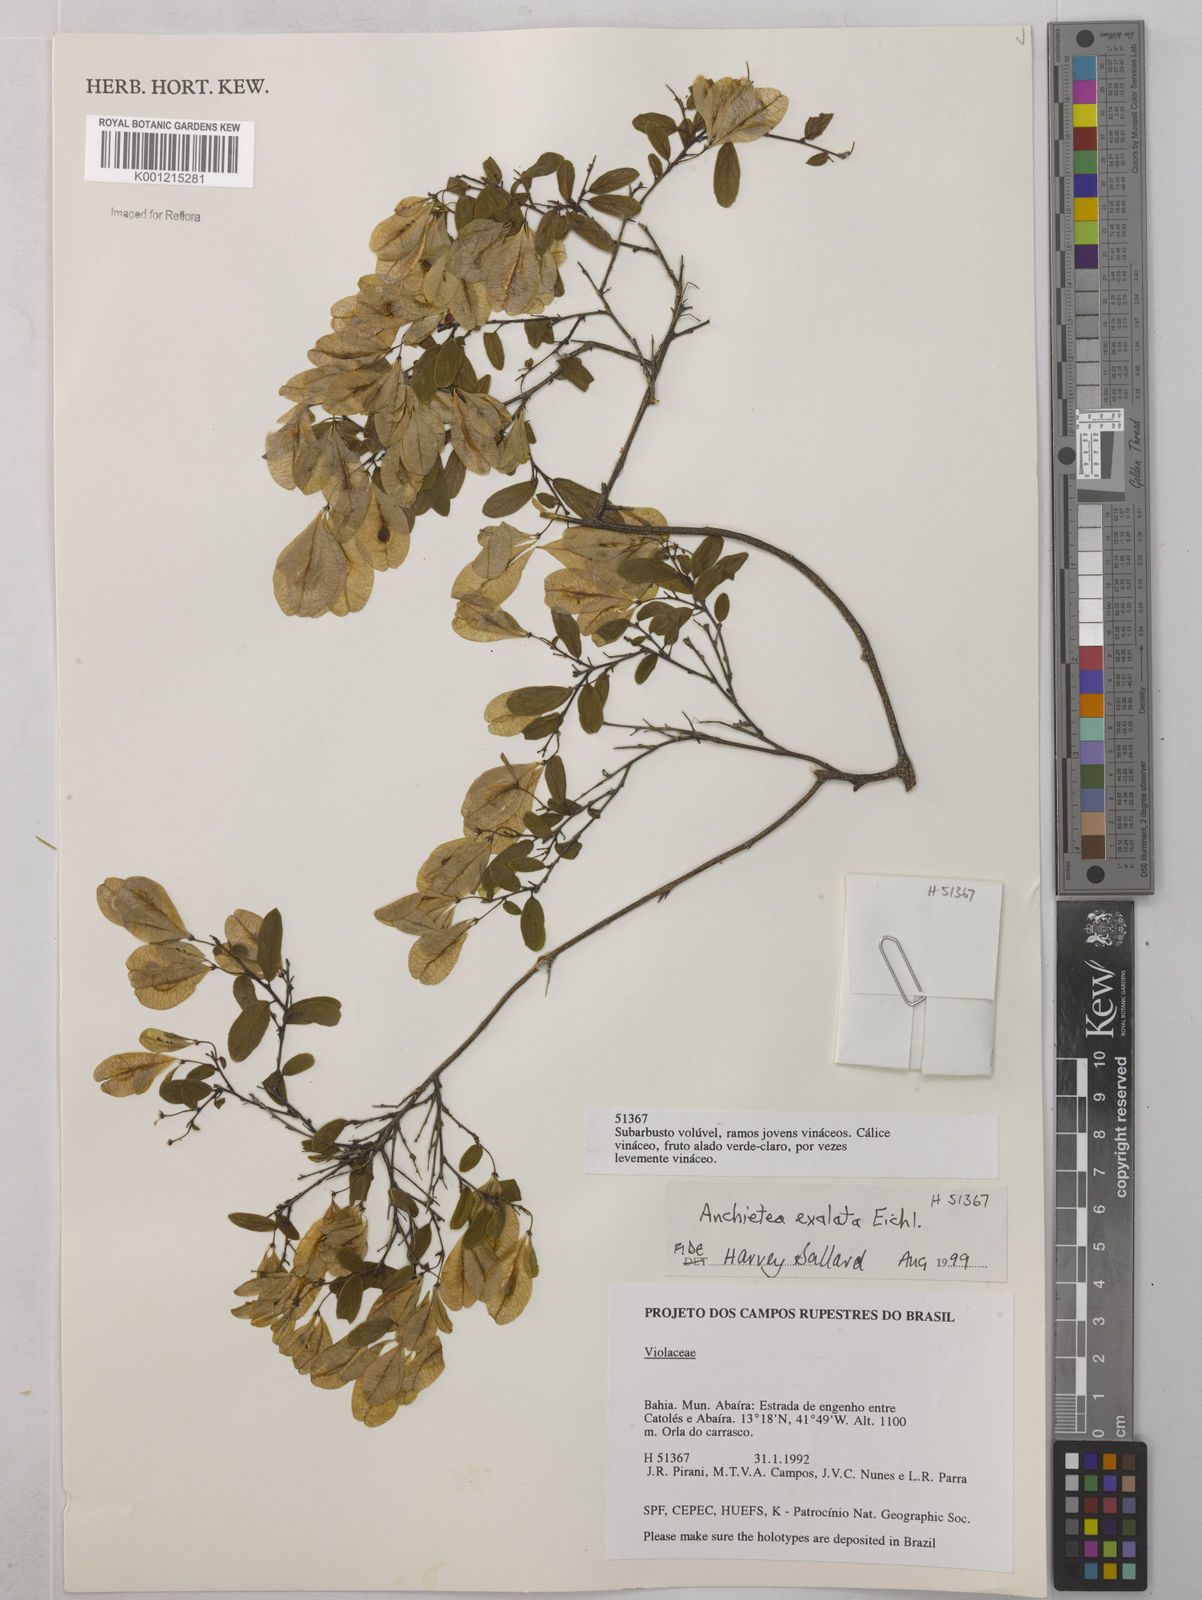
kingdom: Plantae
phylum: Tracheophyta
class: Magnoliopsida
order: Malpighiales
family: Violaceae
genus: Anchietea
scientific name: Anchietea exaltata
